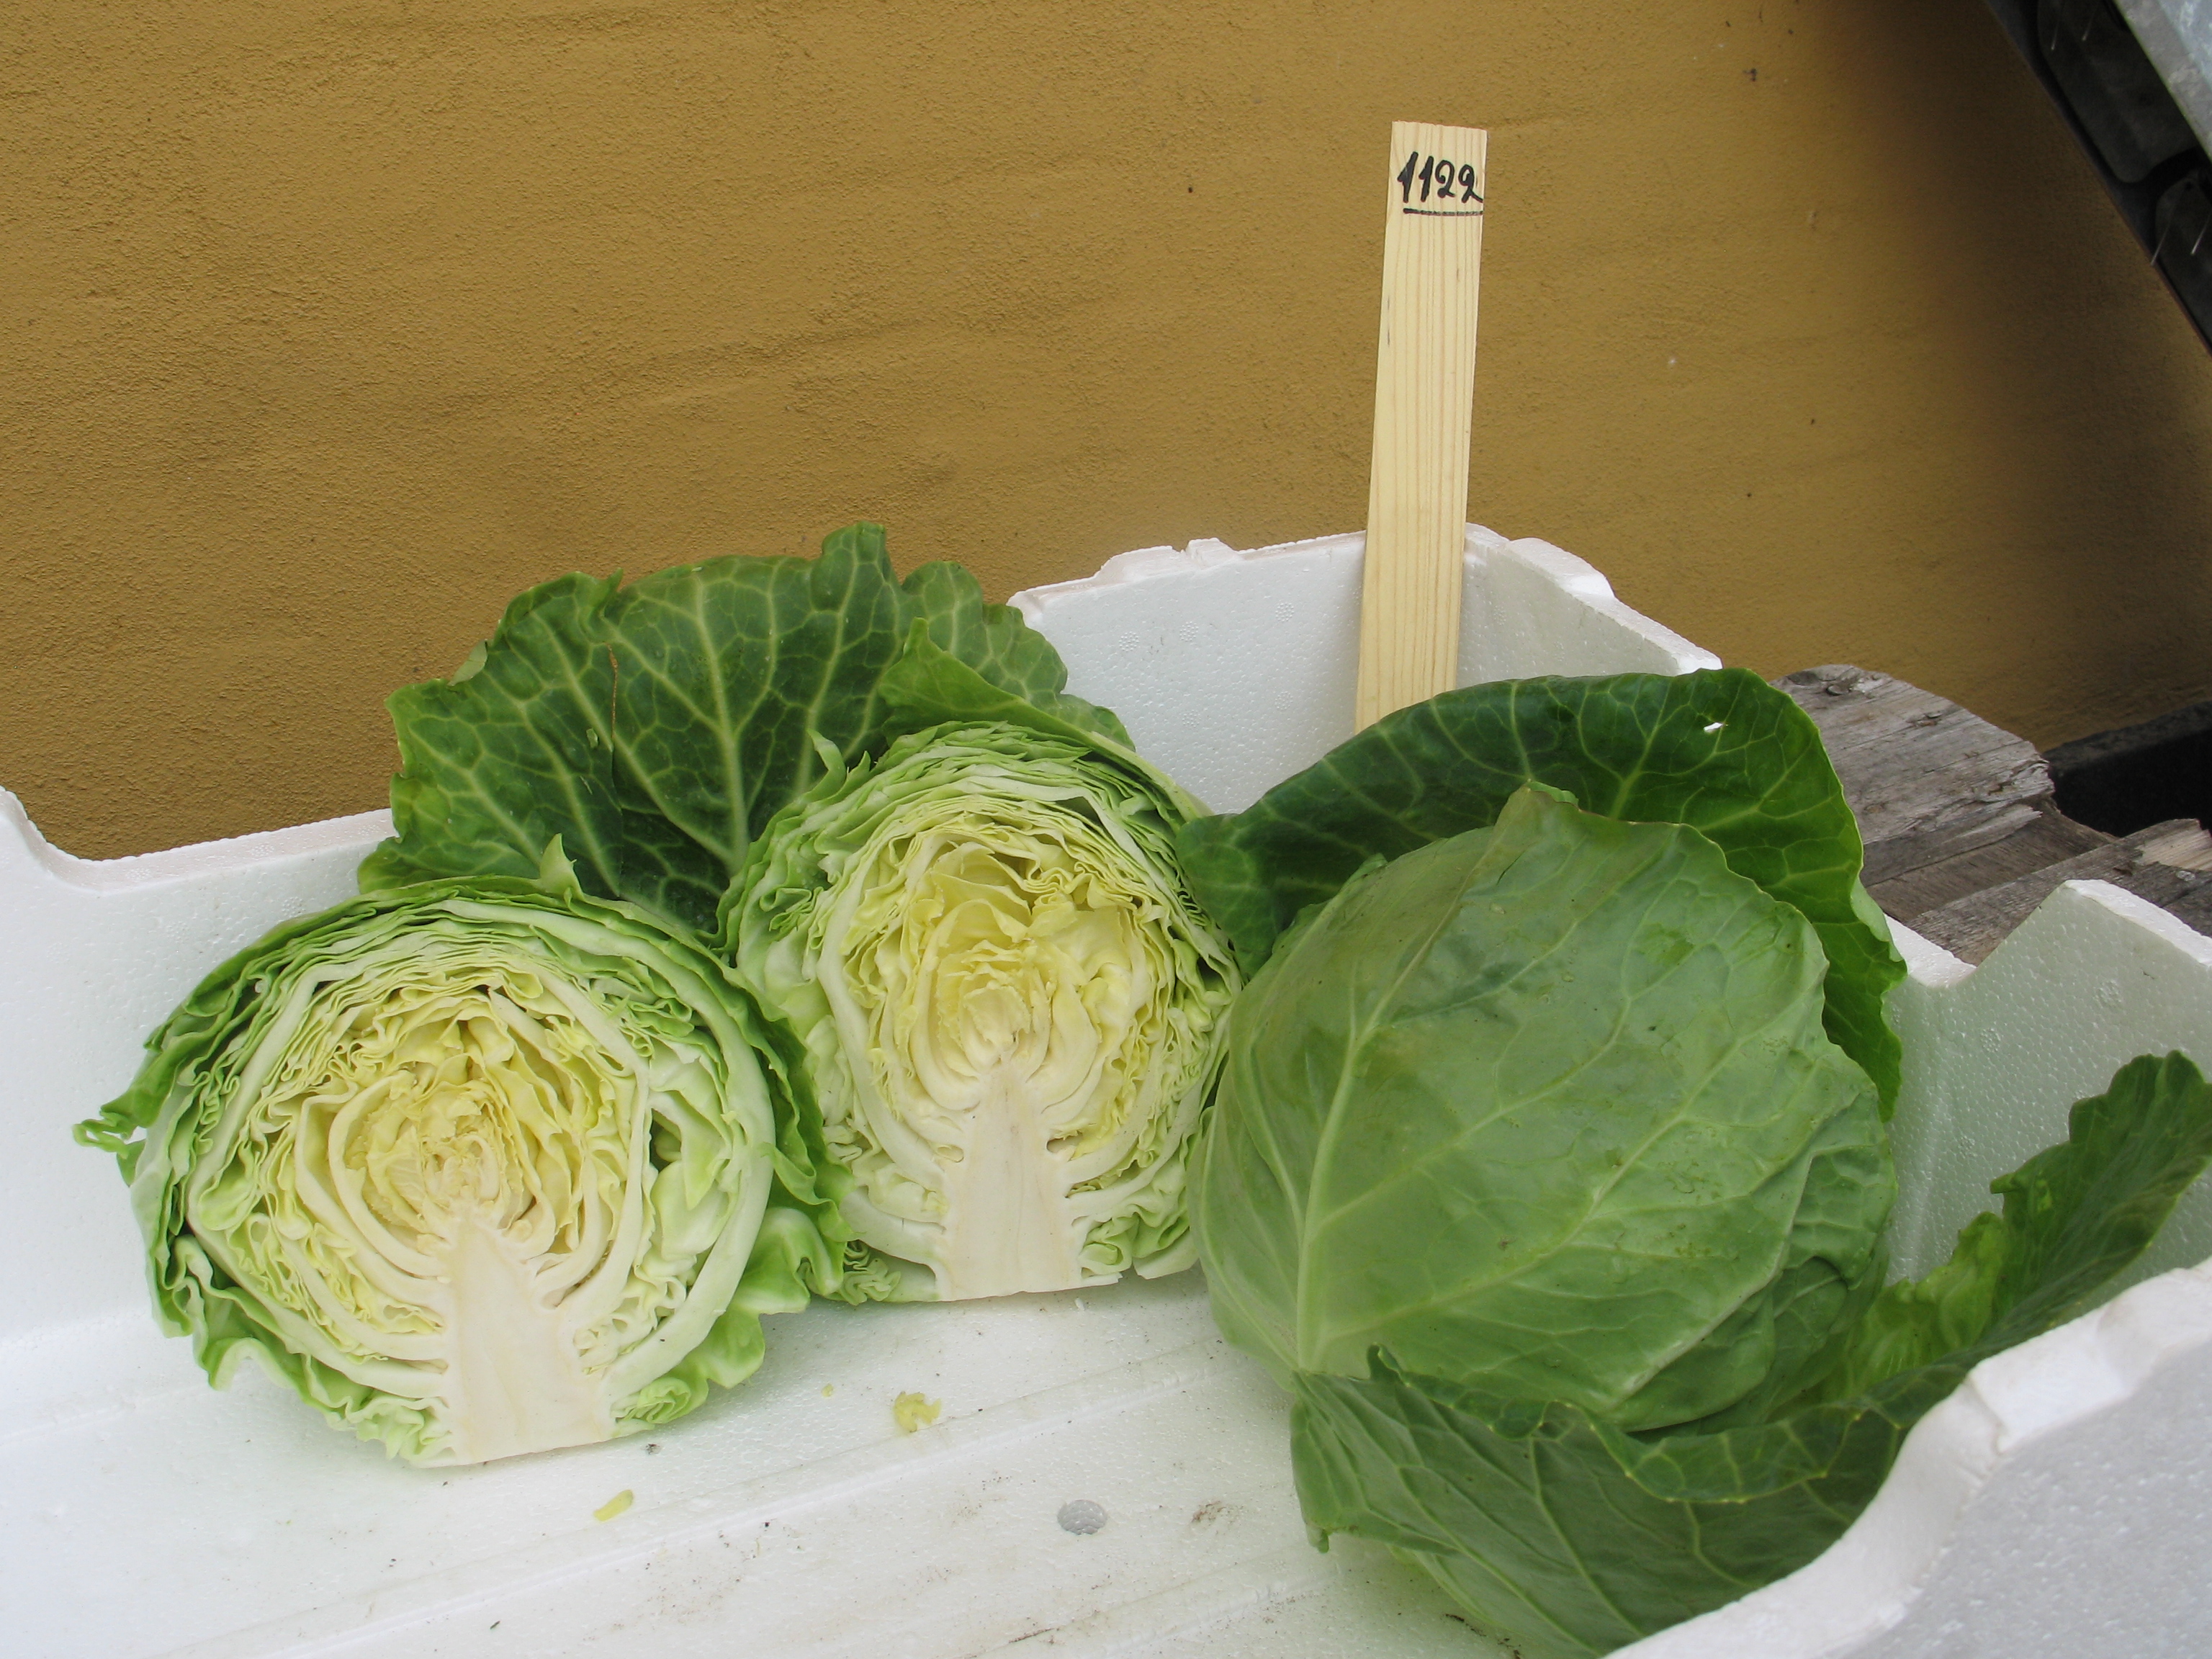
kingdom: Plantae
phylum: Tracheophyta
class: Magnoliopsida
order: Brassicales
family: Brassicaceae
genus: Brassica
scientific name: Brassica oleracea
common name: Cabbage
